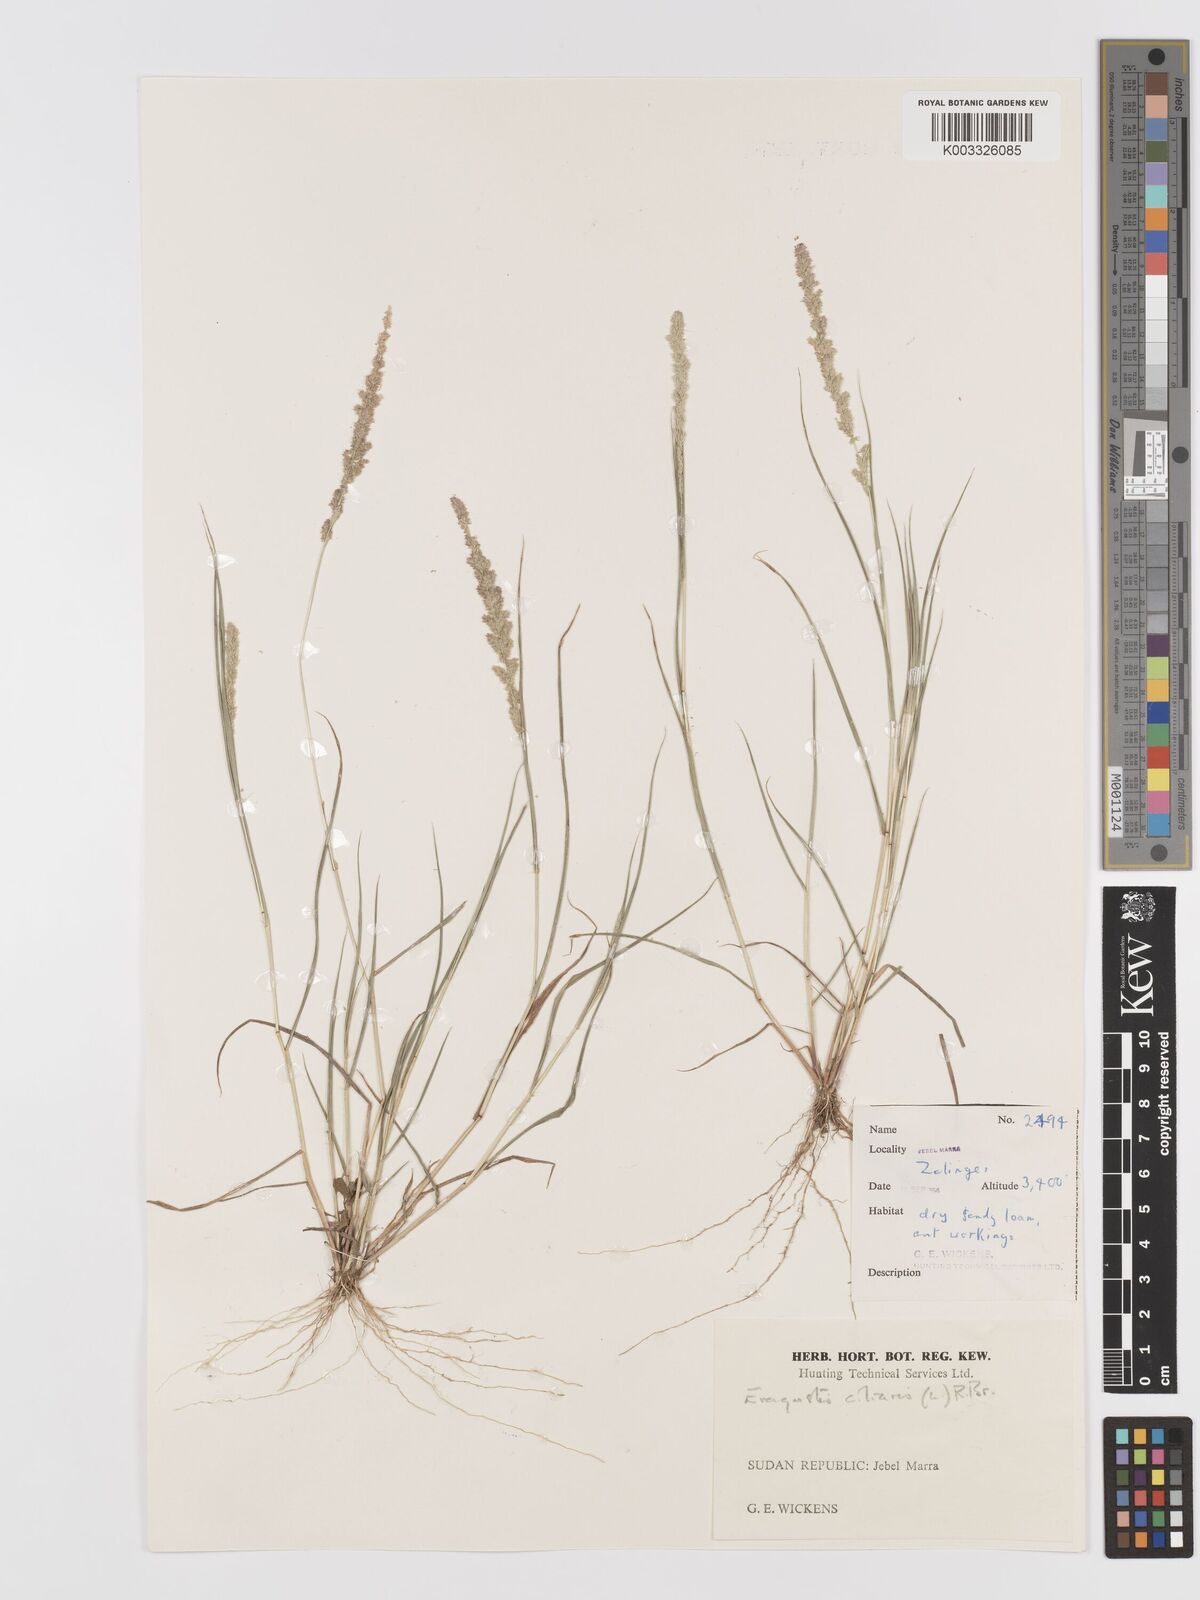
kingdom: Plantae
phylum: Tracheophyta
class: Liliopsida
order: Poales
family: Poaceae
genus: Eragrostis
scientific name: Eragrostis ciliaris
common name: Gophertail lovegrass
